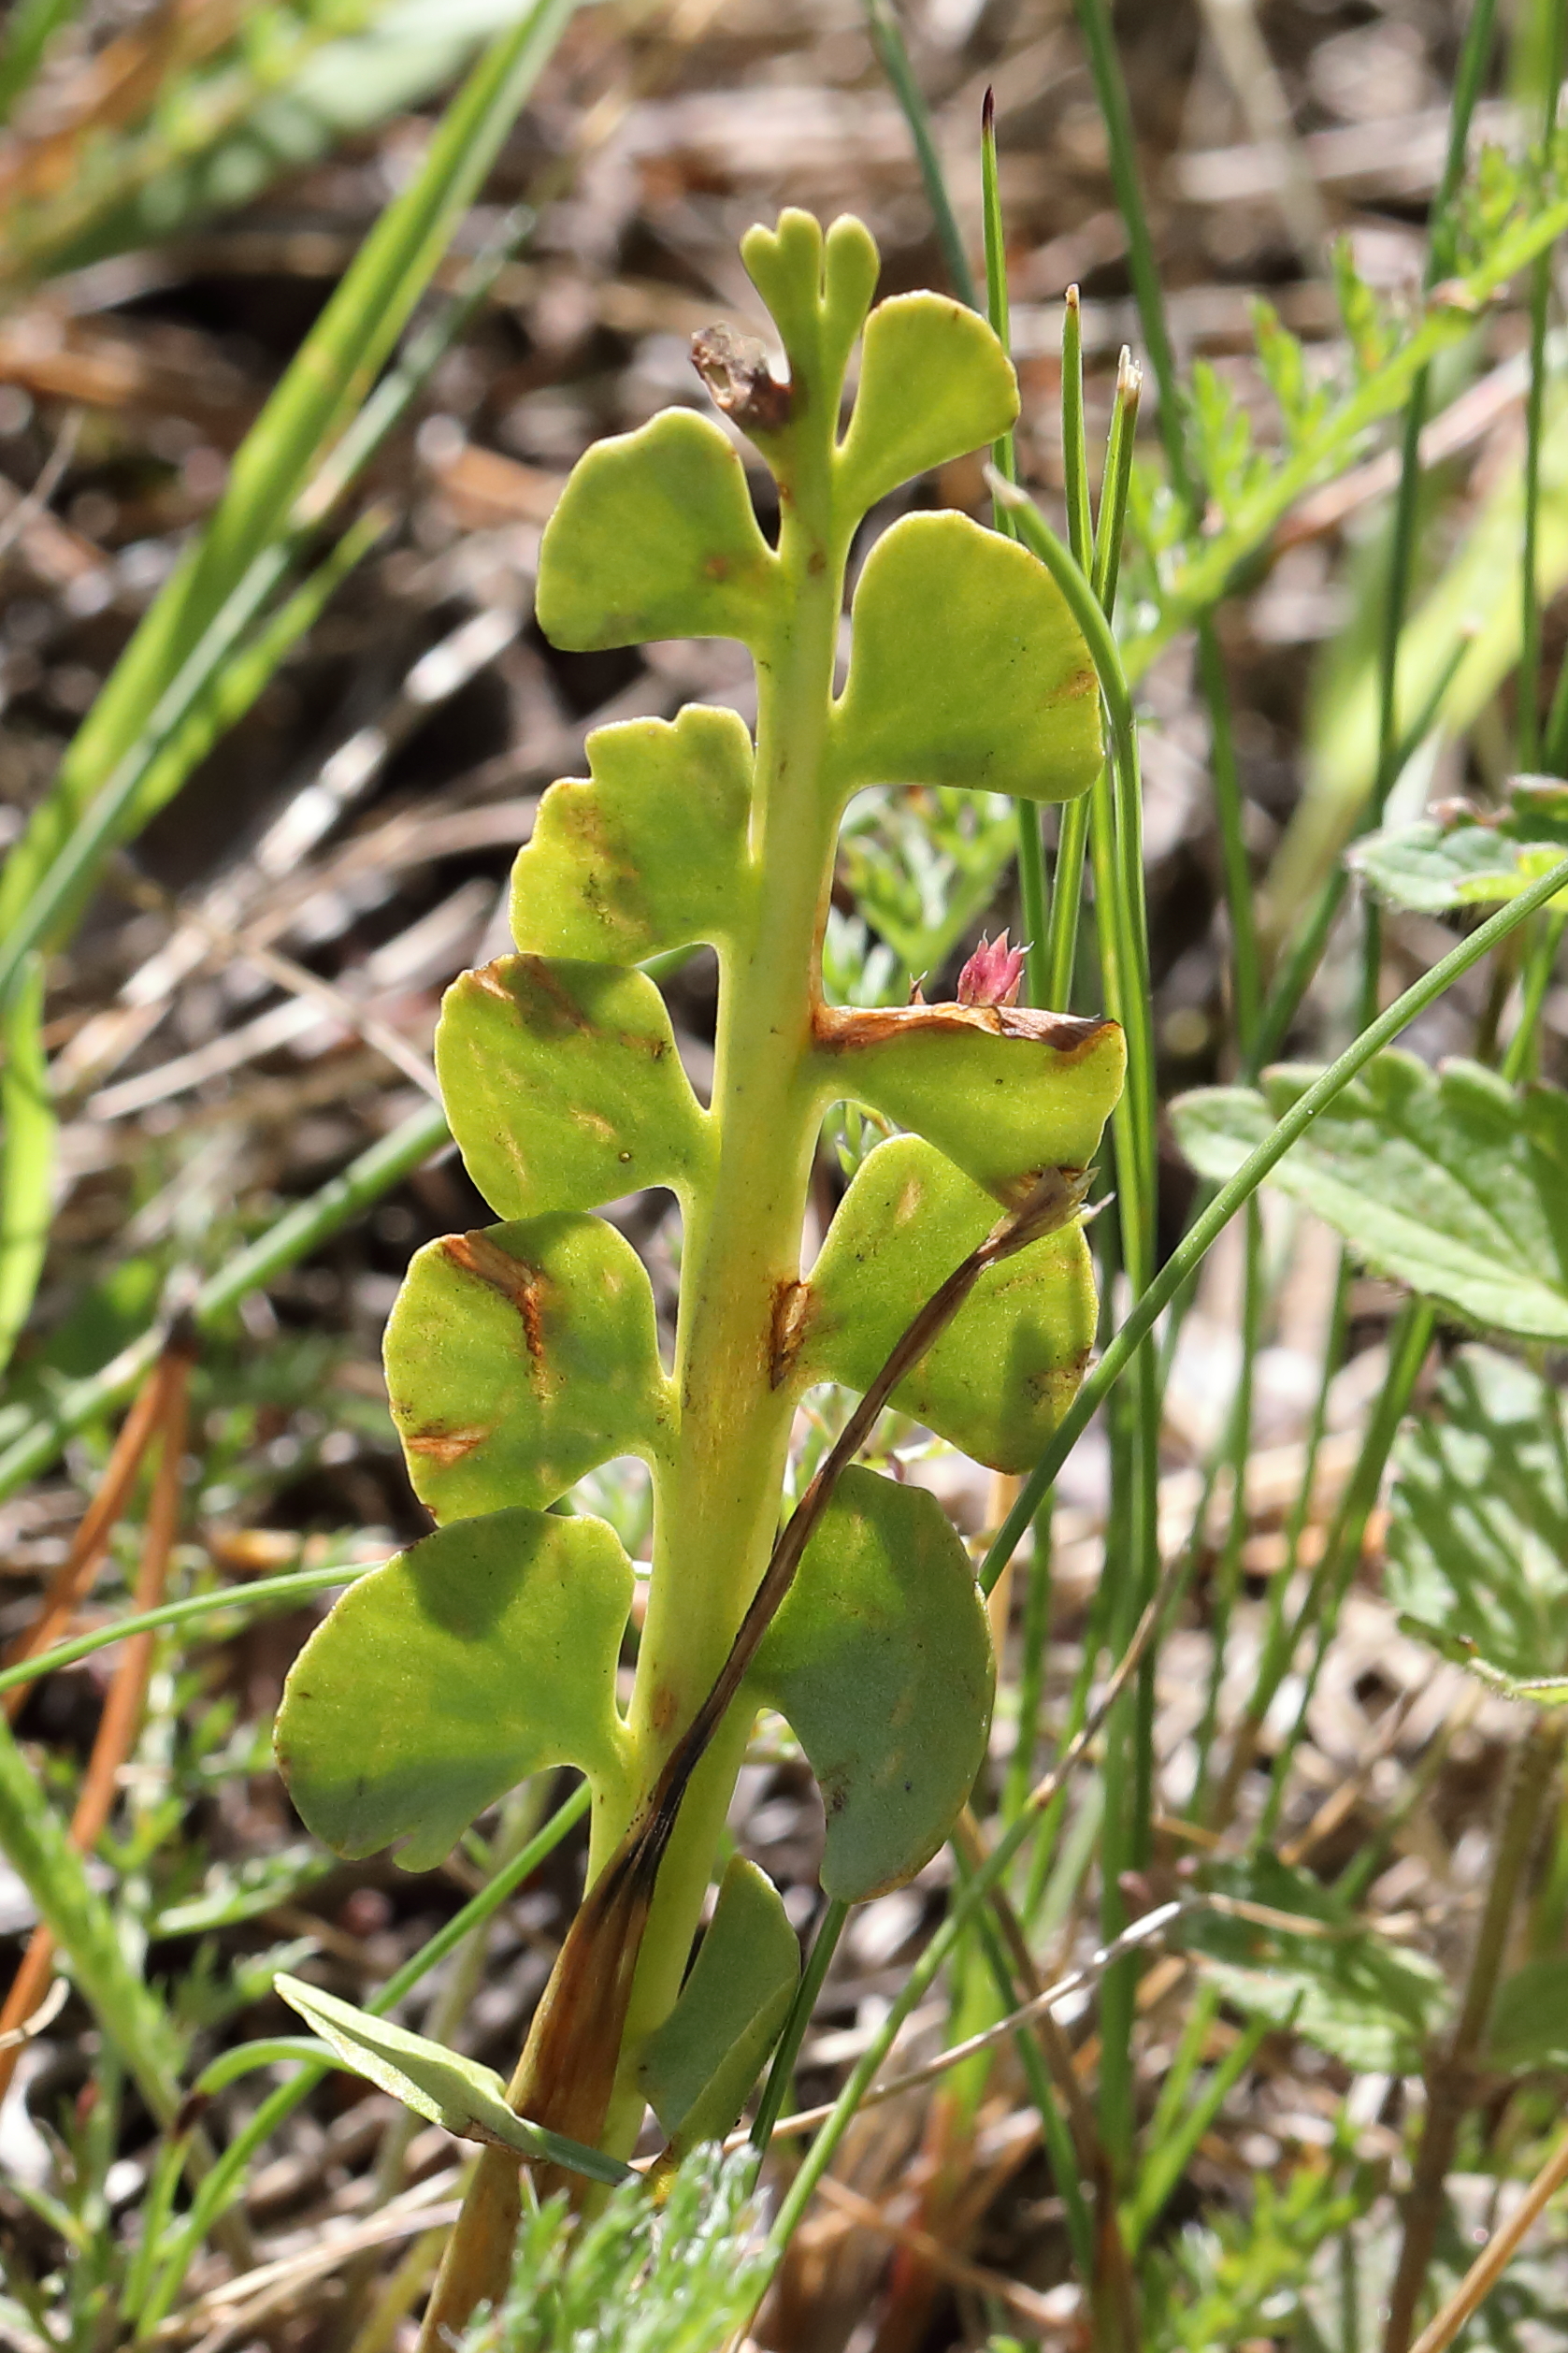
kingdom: Plantae
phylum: Tracheophyta
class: Polypodiopsida
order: Ophioglossales
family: Ophioglossaceae
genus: Botrychium
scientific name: Botrychium lunaria
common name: Moonwort
